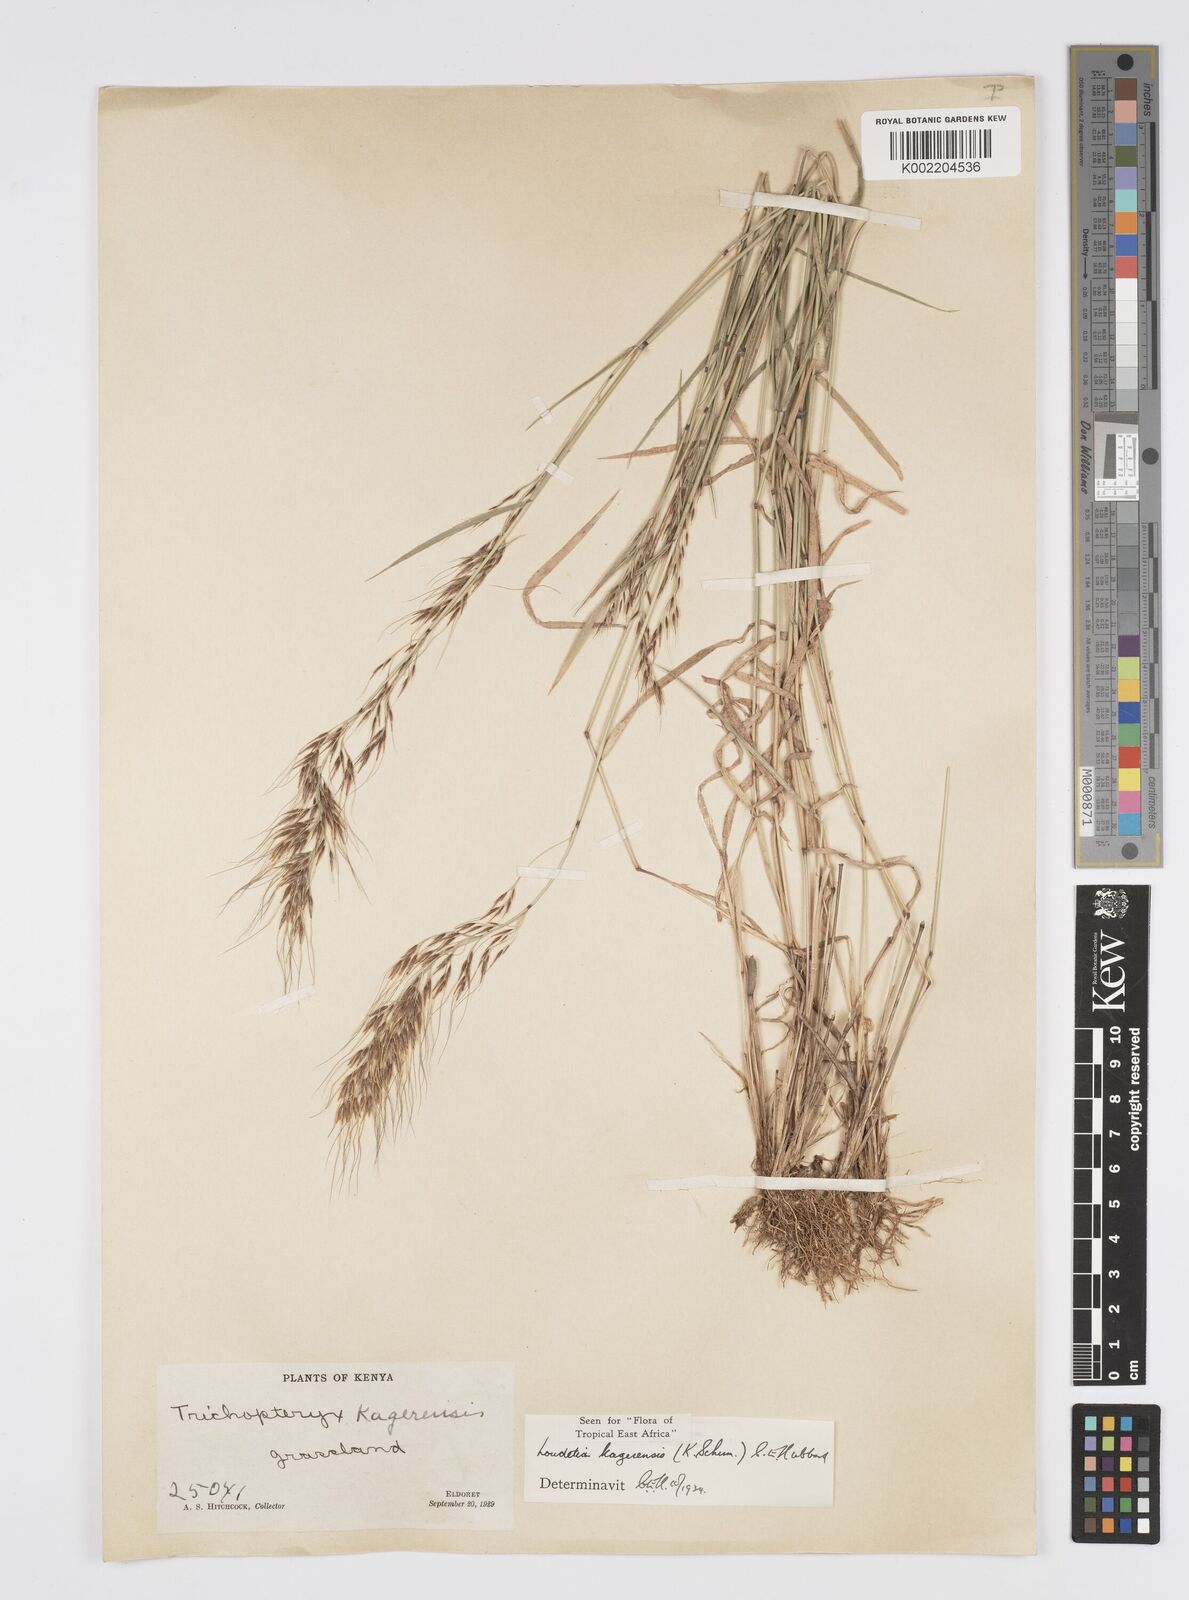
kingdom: Plantae
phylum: Tracheophyta
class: Liliopsida
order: Poales
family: Poaceae
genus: Loudetia
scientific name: Loudetia kagerensis
